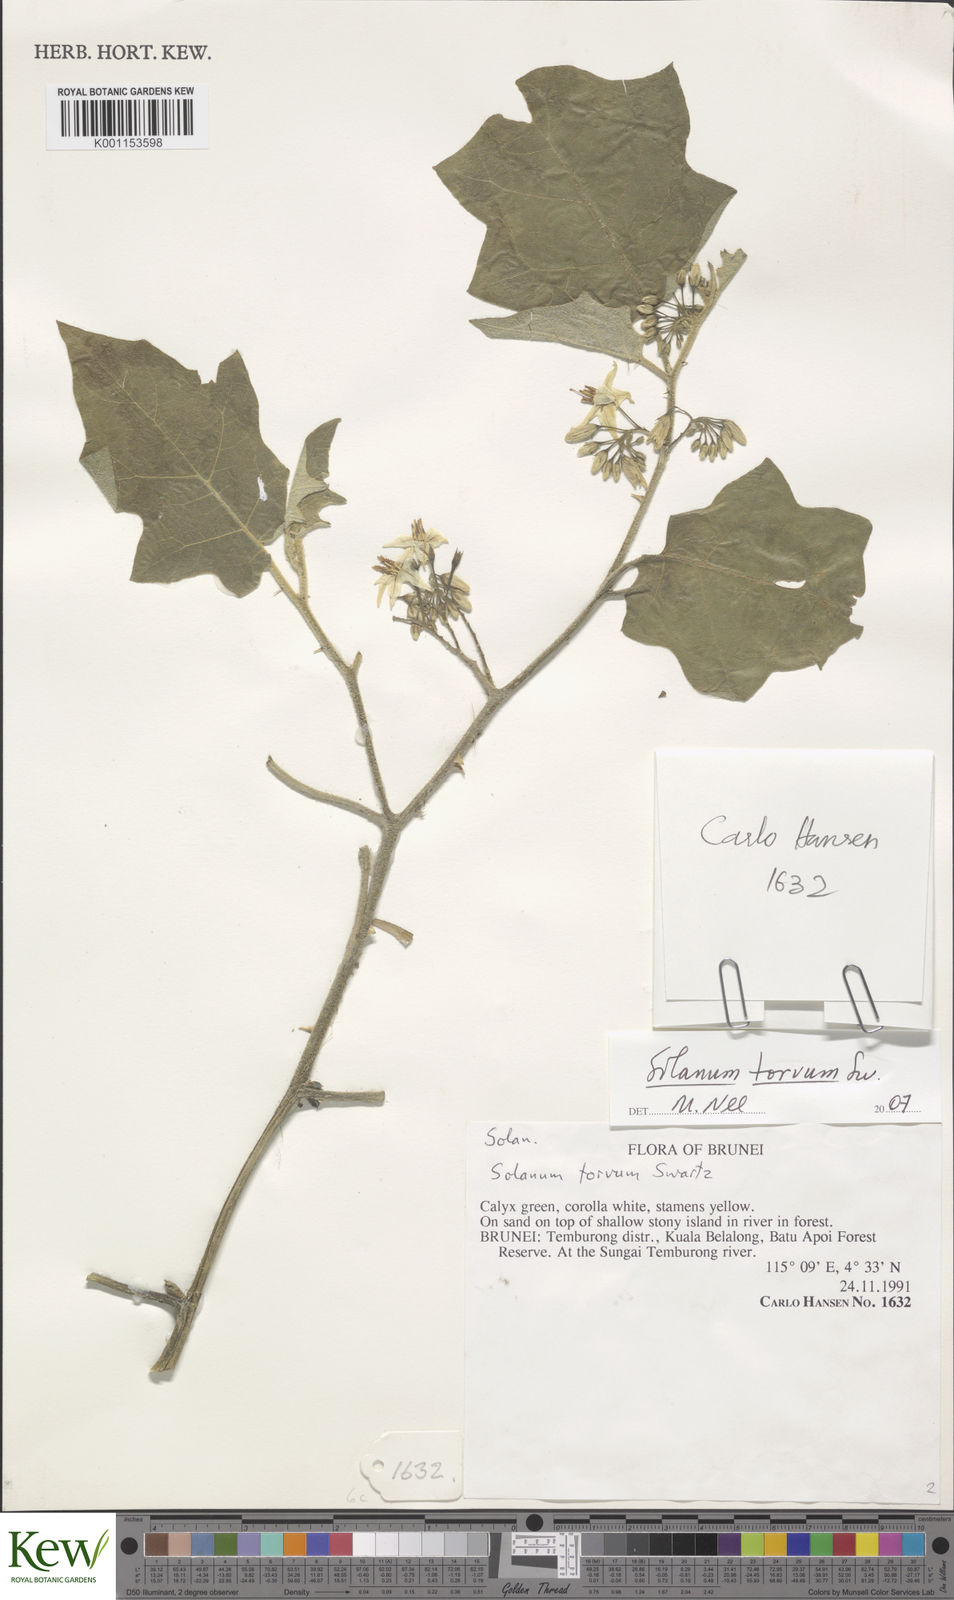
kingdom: Plantae
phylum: Tracheophyta
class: Magnoliopsida
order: Solanales
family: Solanaceae
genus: Solanum
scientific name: Solanum torvum
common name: Turkey berry
